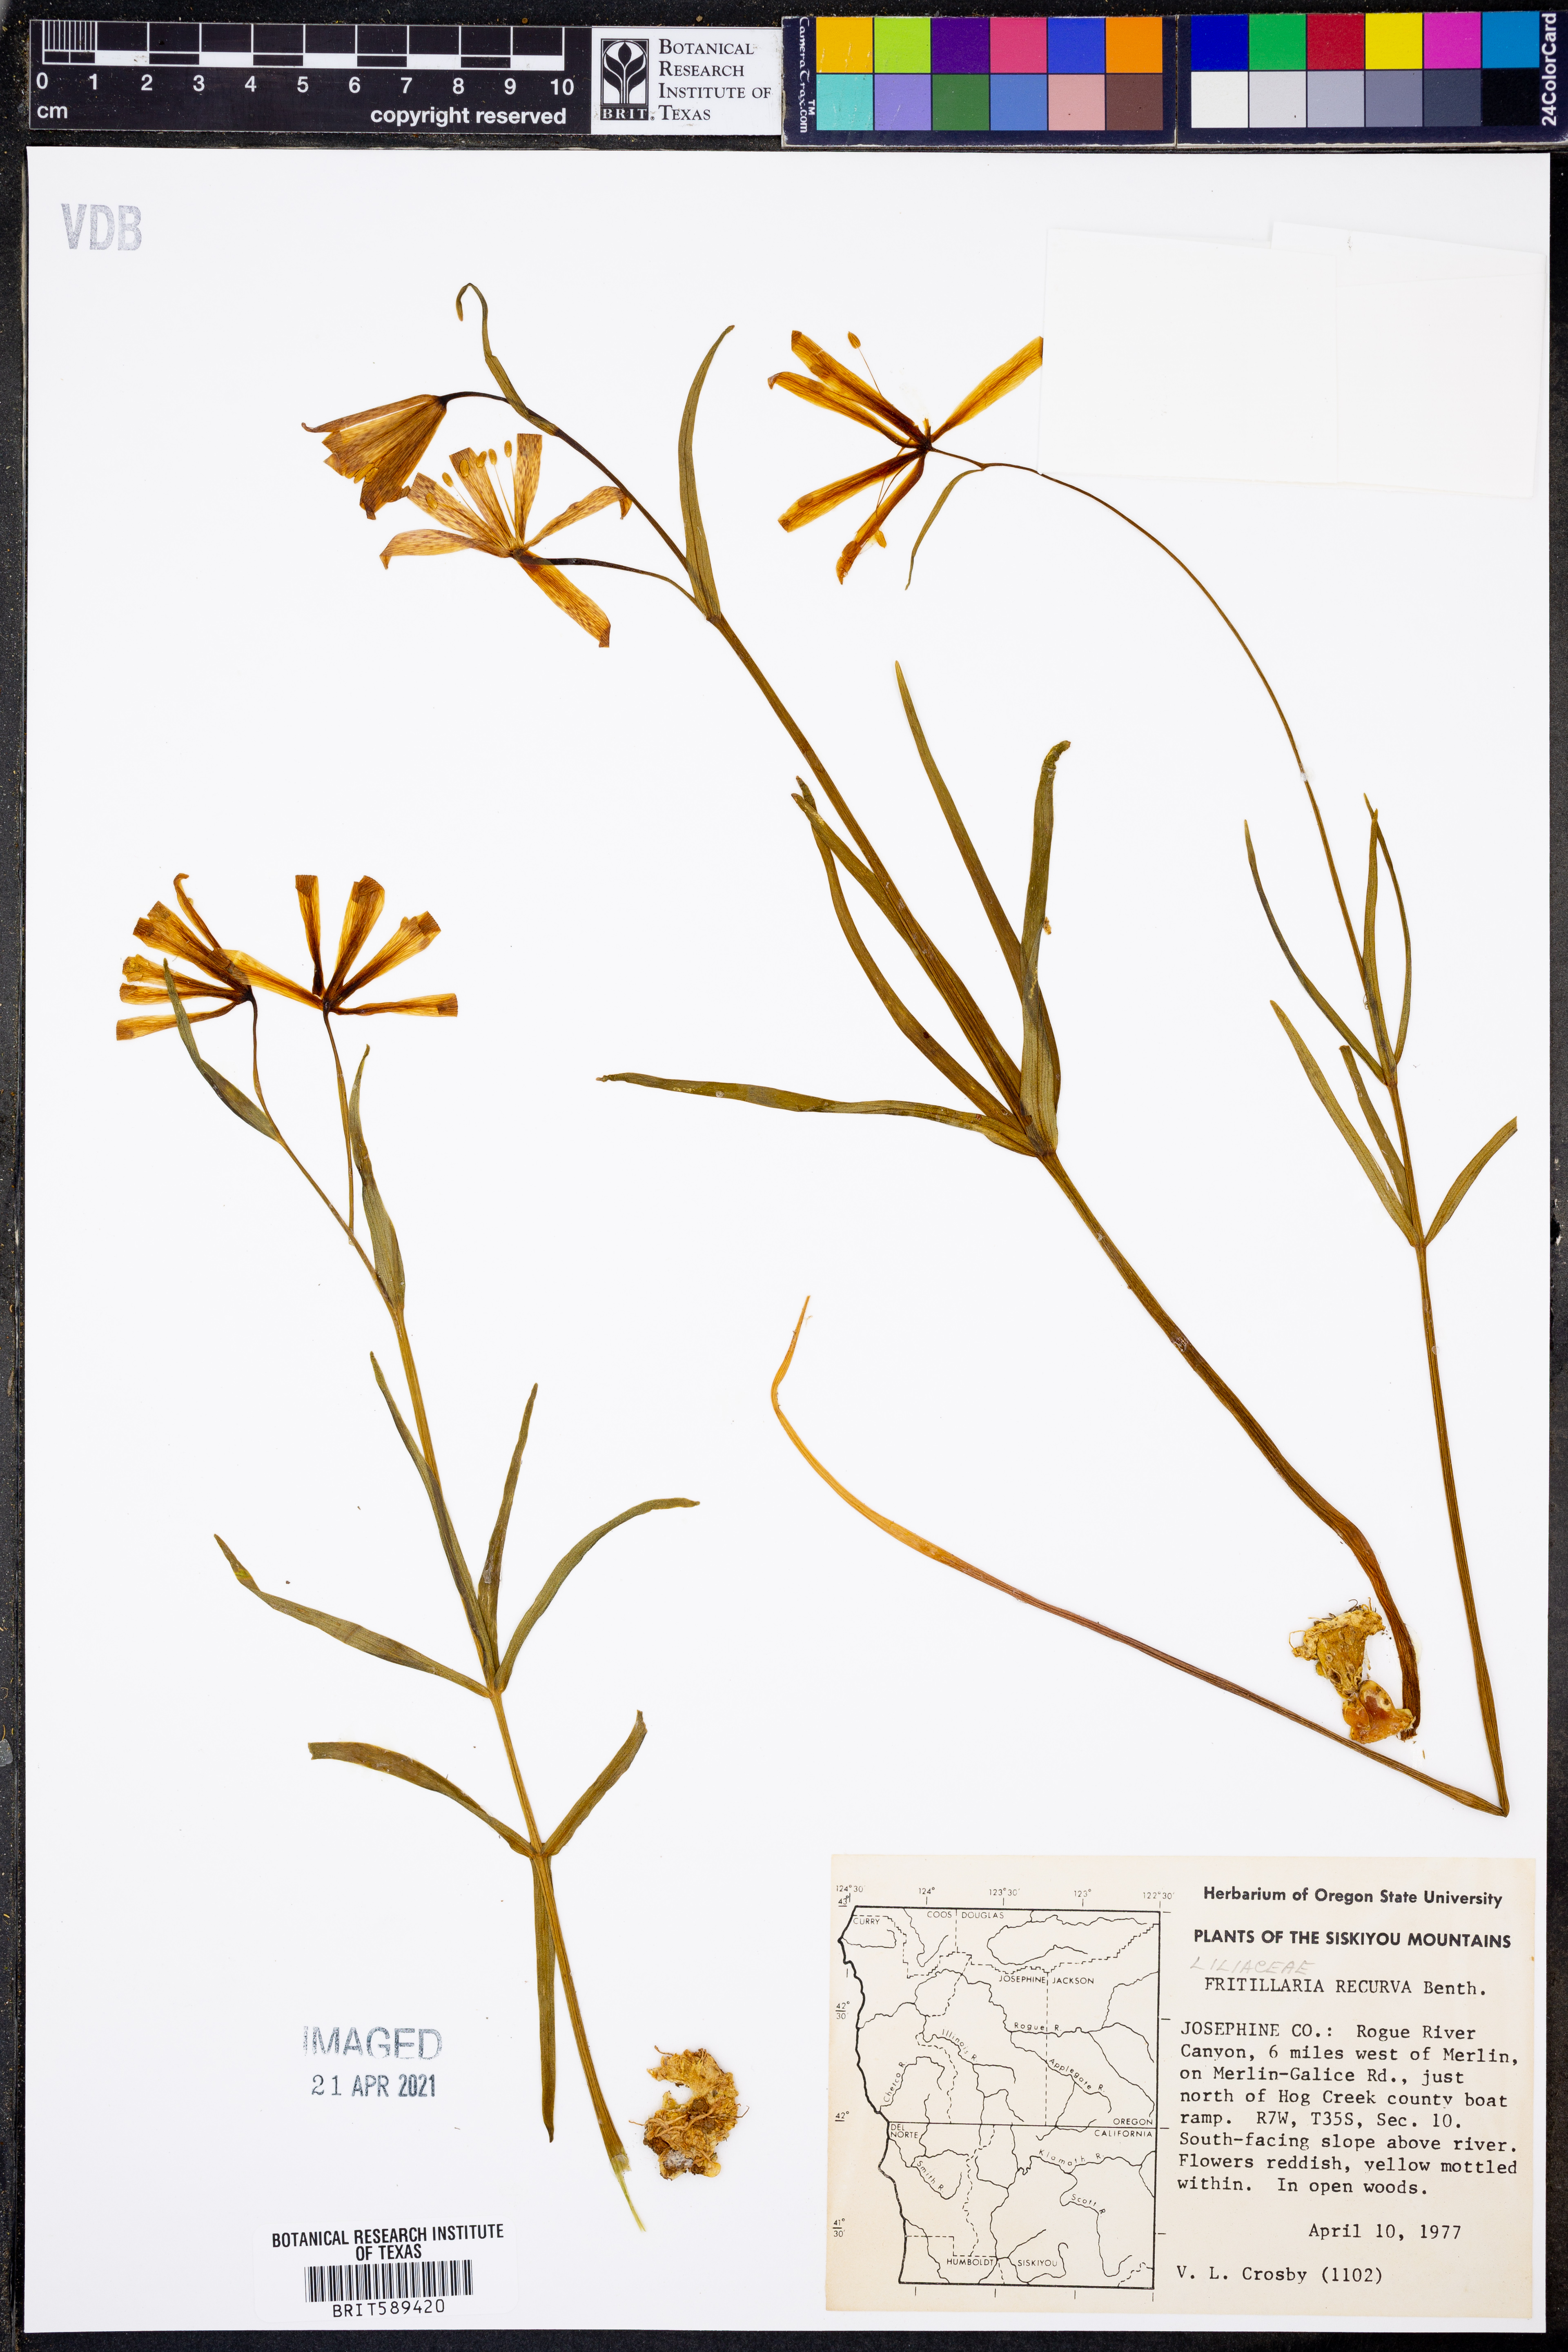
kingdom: Plantae
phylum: Tracheophyta
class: Liliopsida
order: Liliales
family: Liliaceae
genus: Fritillaria
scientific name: Fritillaria recurva
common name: Scarlet fritillary
